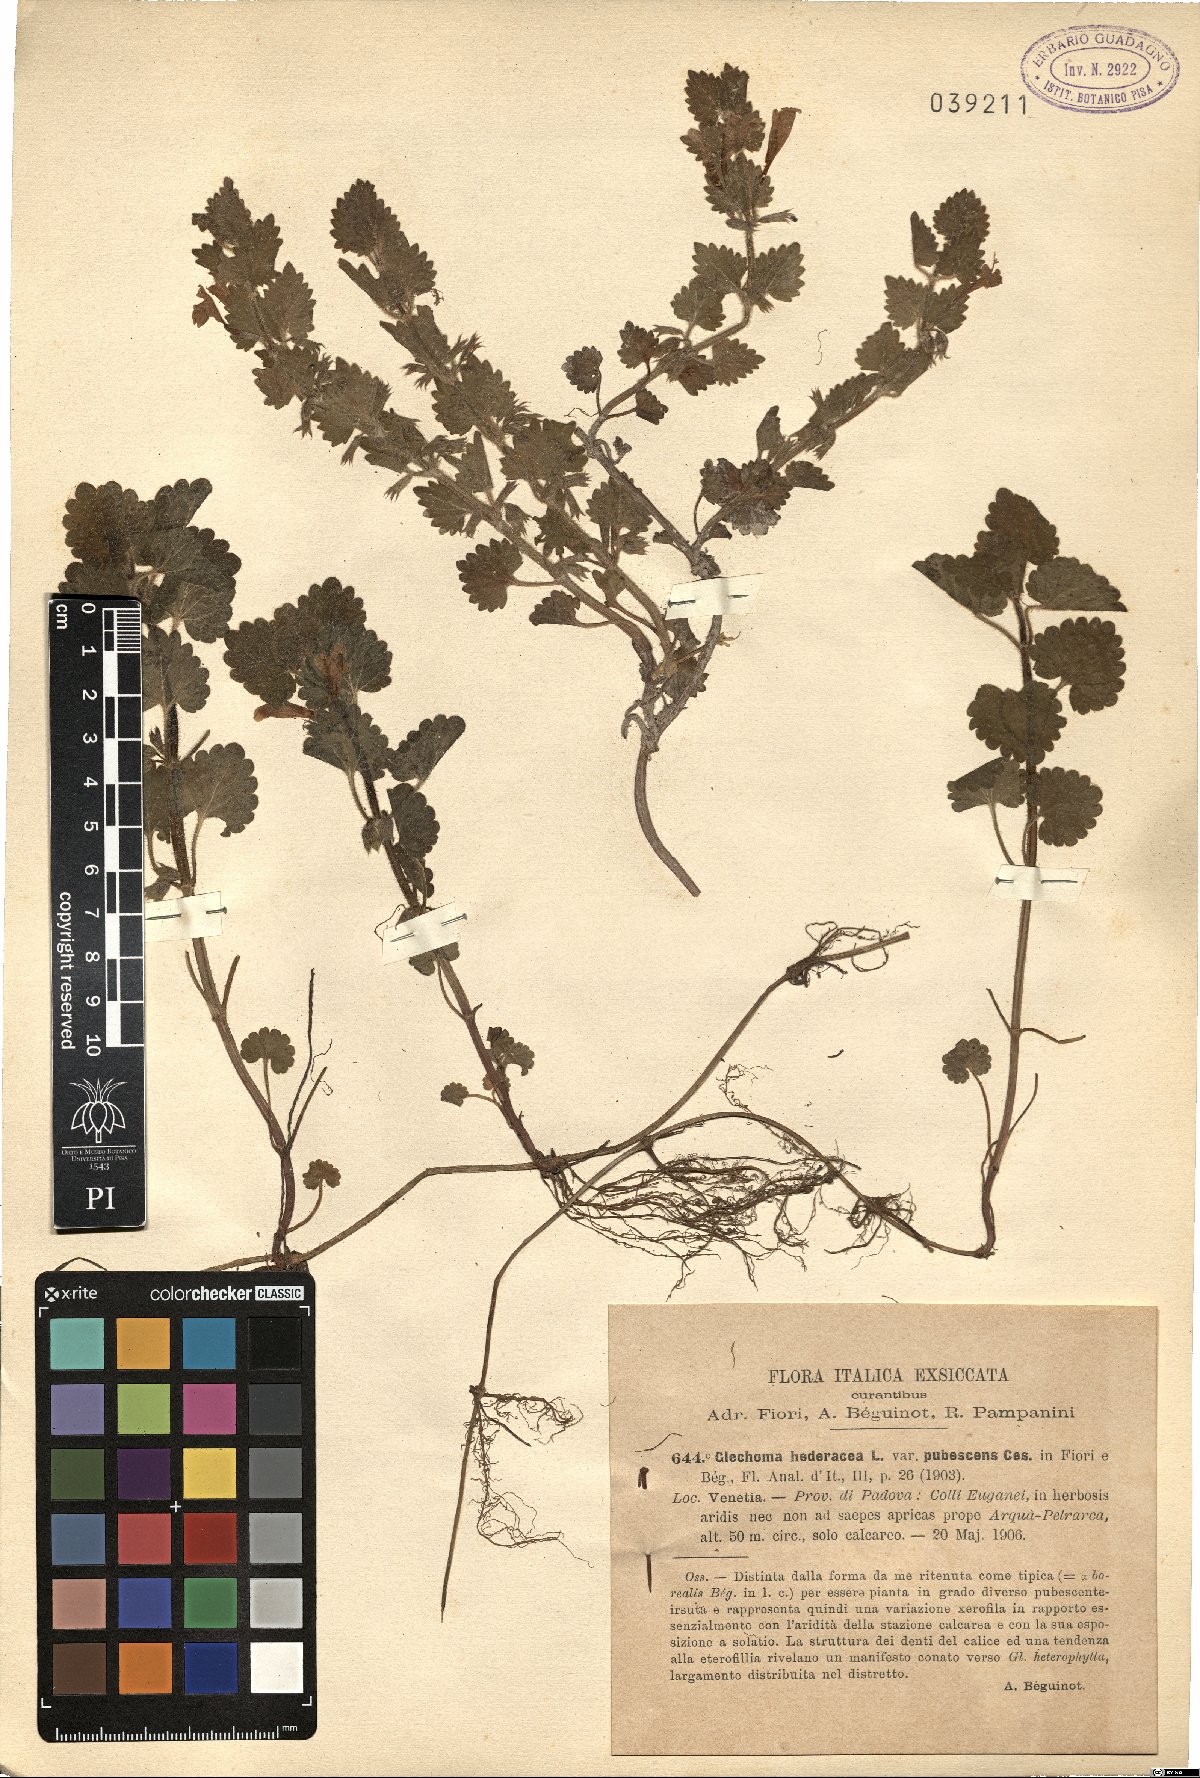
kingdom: Plantae
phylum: Tracheophyta
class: Magnoliopsida
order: Lamiales
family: Lamiaceae
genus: Glechoma
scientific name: Glechoma hederacea
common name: Ground ivy
